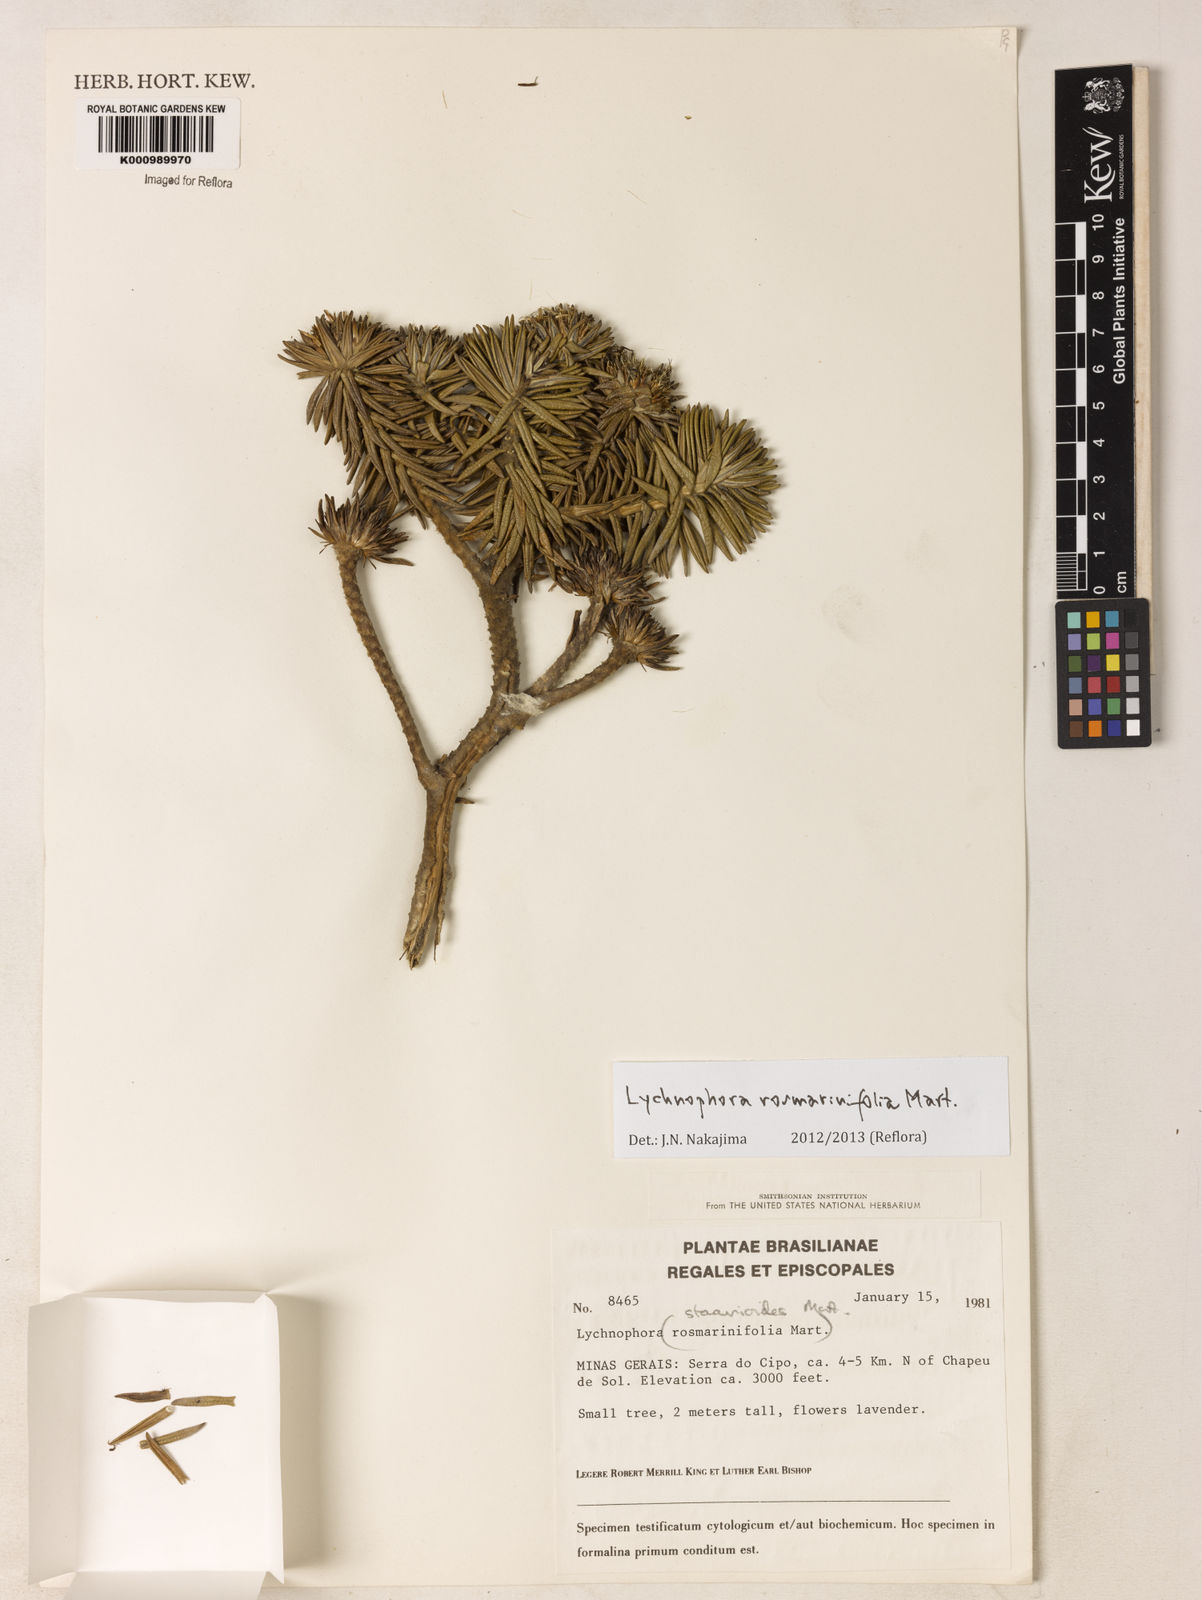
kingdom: Plantae
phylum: Tracheophyta
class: Magnoliopsida
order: Asterales
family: Asteraceae
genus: Lychnophora
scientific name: Lychnophora rosmarinifolia
